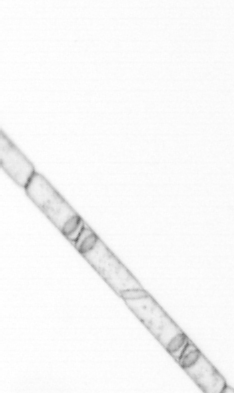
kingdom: Chromista
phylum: Ochrophyta
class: Bacillariophyceae
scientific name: Bacillariophyceae
